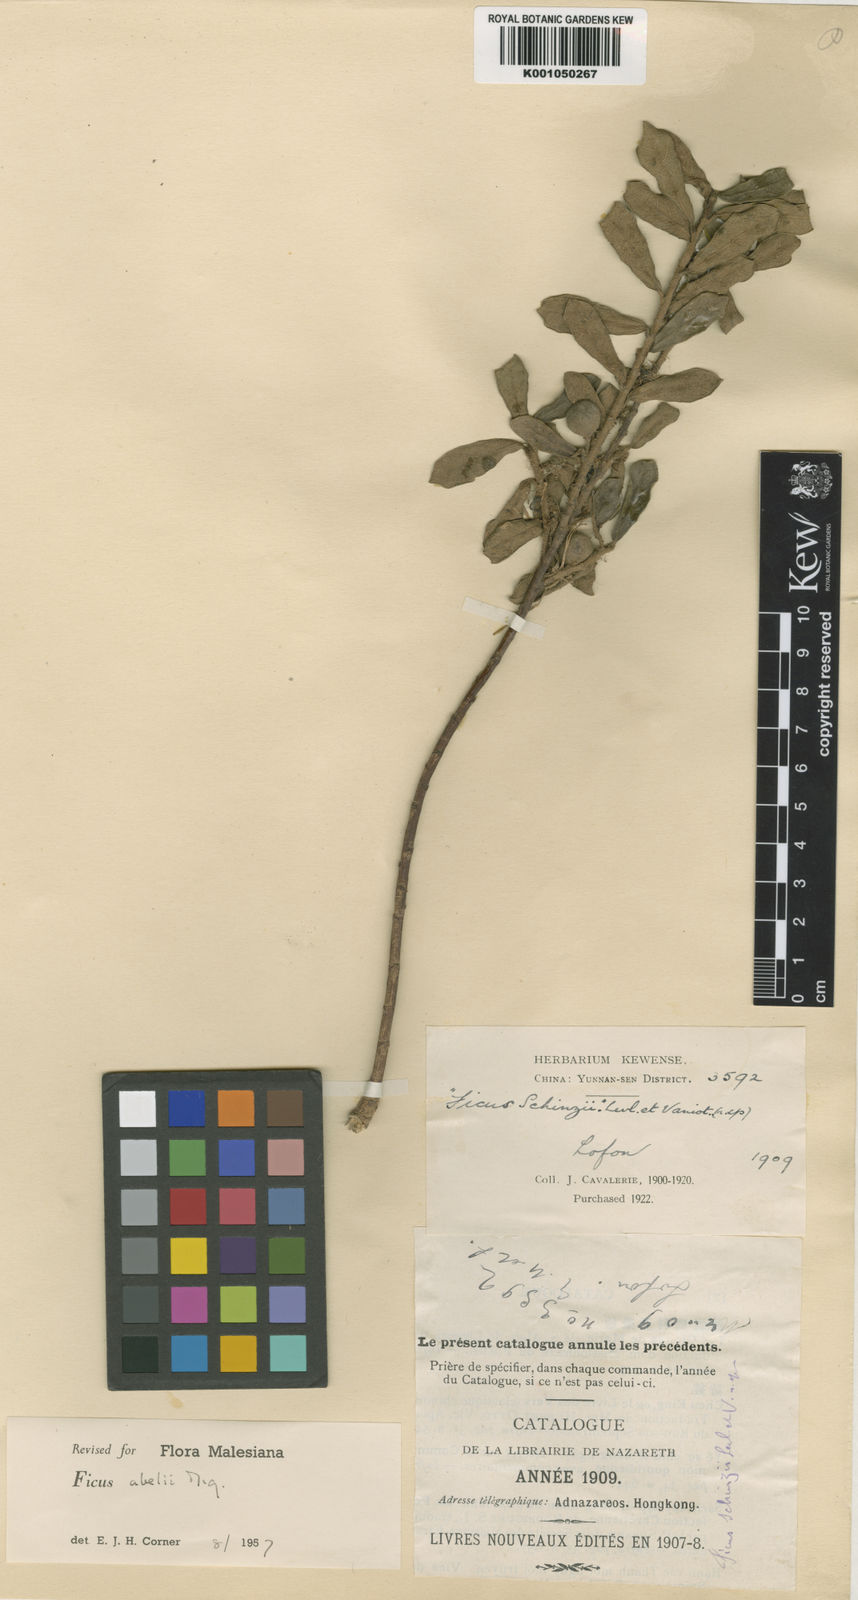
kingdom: Plantae
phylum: Tracheophyta
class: Magnoliopsida
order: Rosales
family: Moraceae
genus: Ficus
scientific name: Ficus abelii
